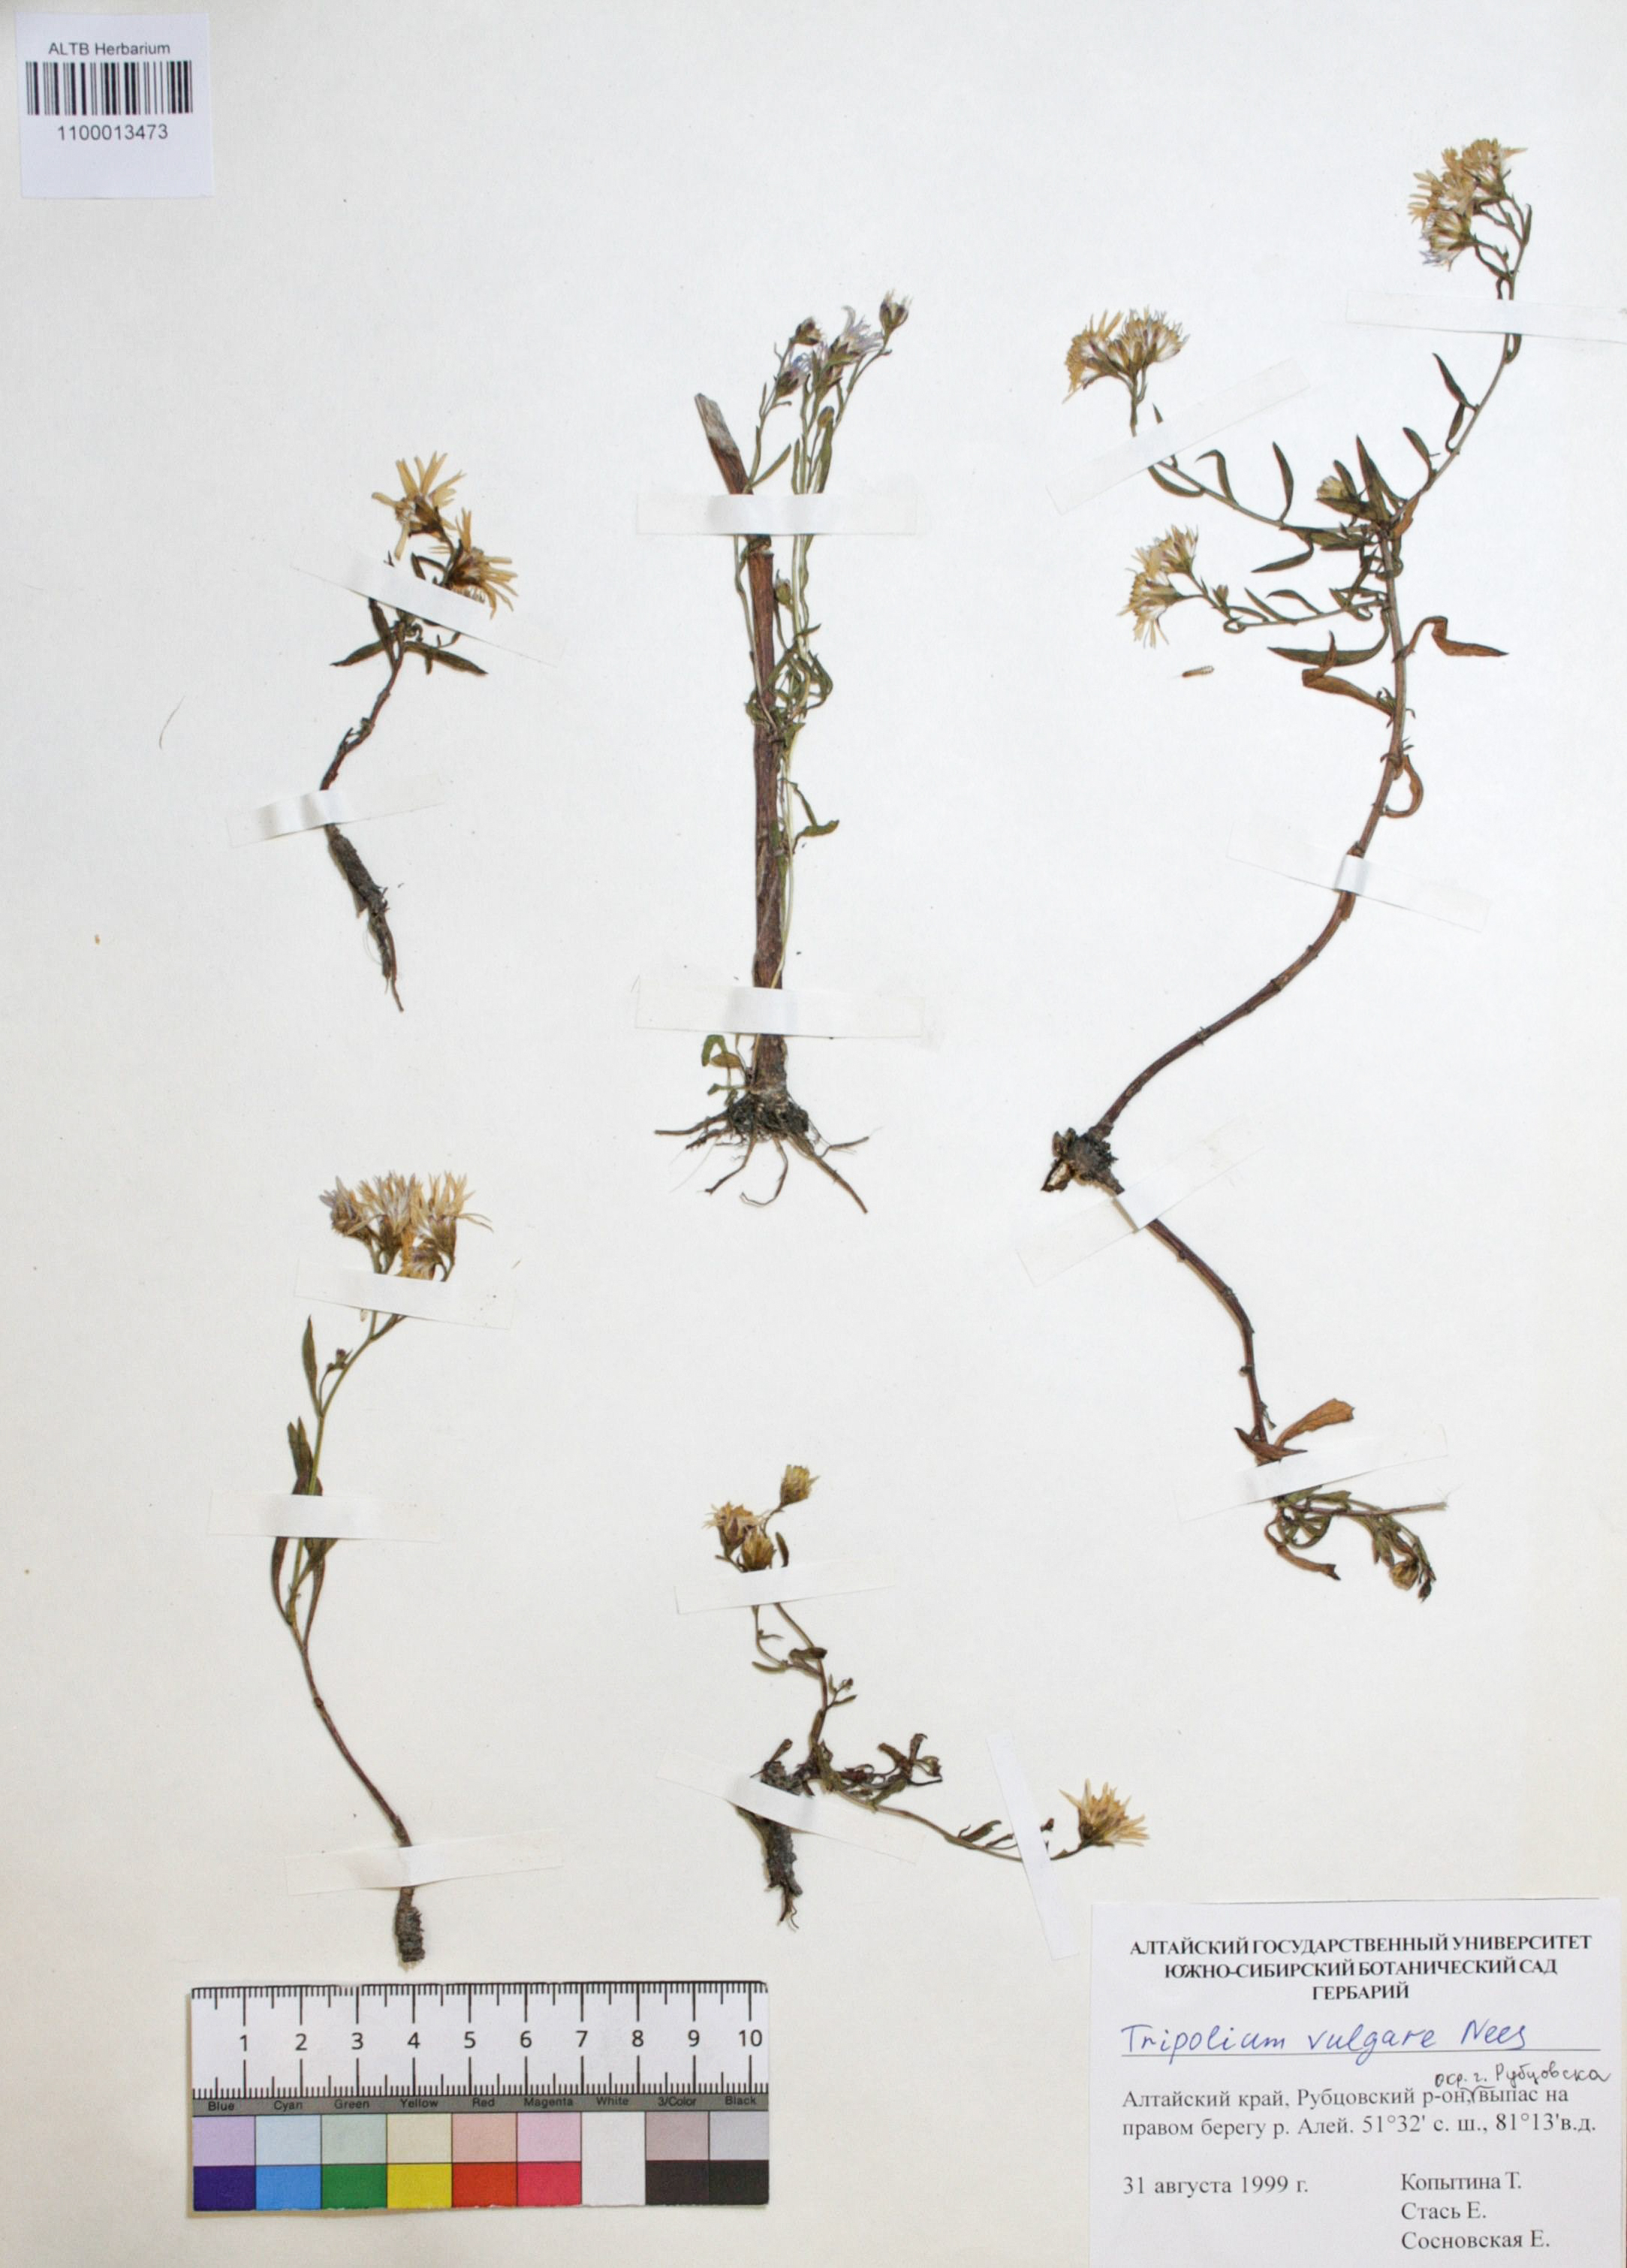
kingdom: Plantae
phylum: Tracheophyta
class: Magnoliopsida
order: Asterales
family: Asteraceae
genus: Tripolium
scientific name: Tripolium pannonicum
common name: Sea aster
